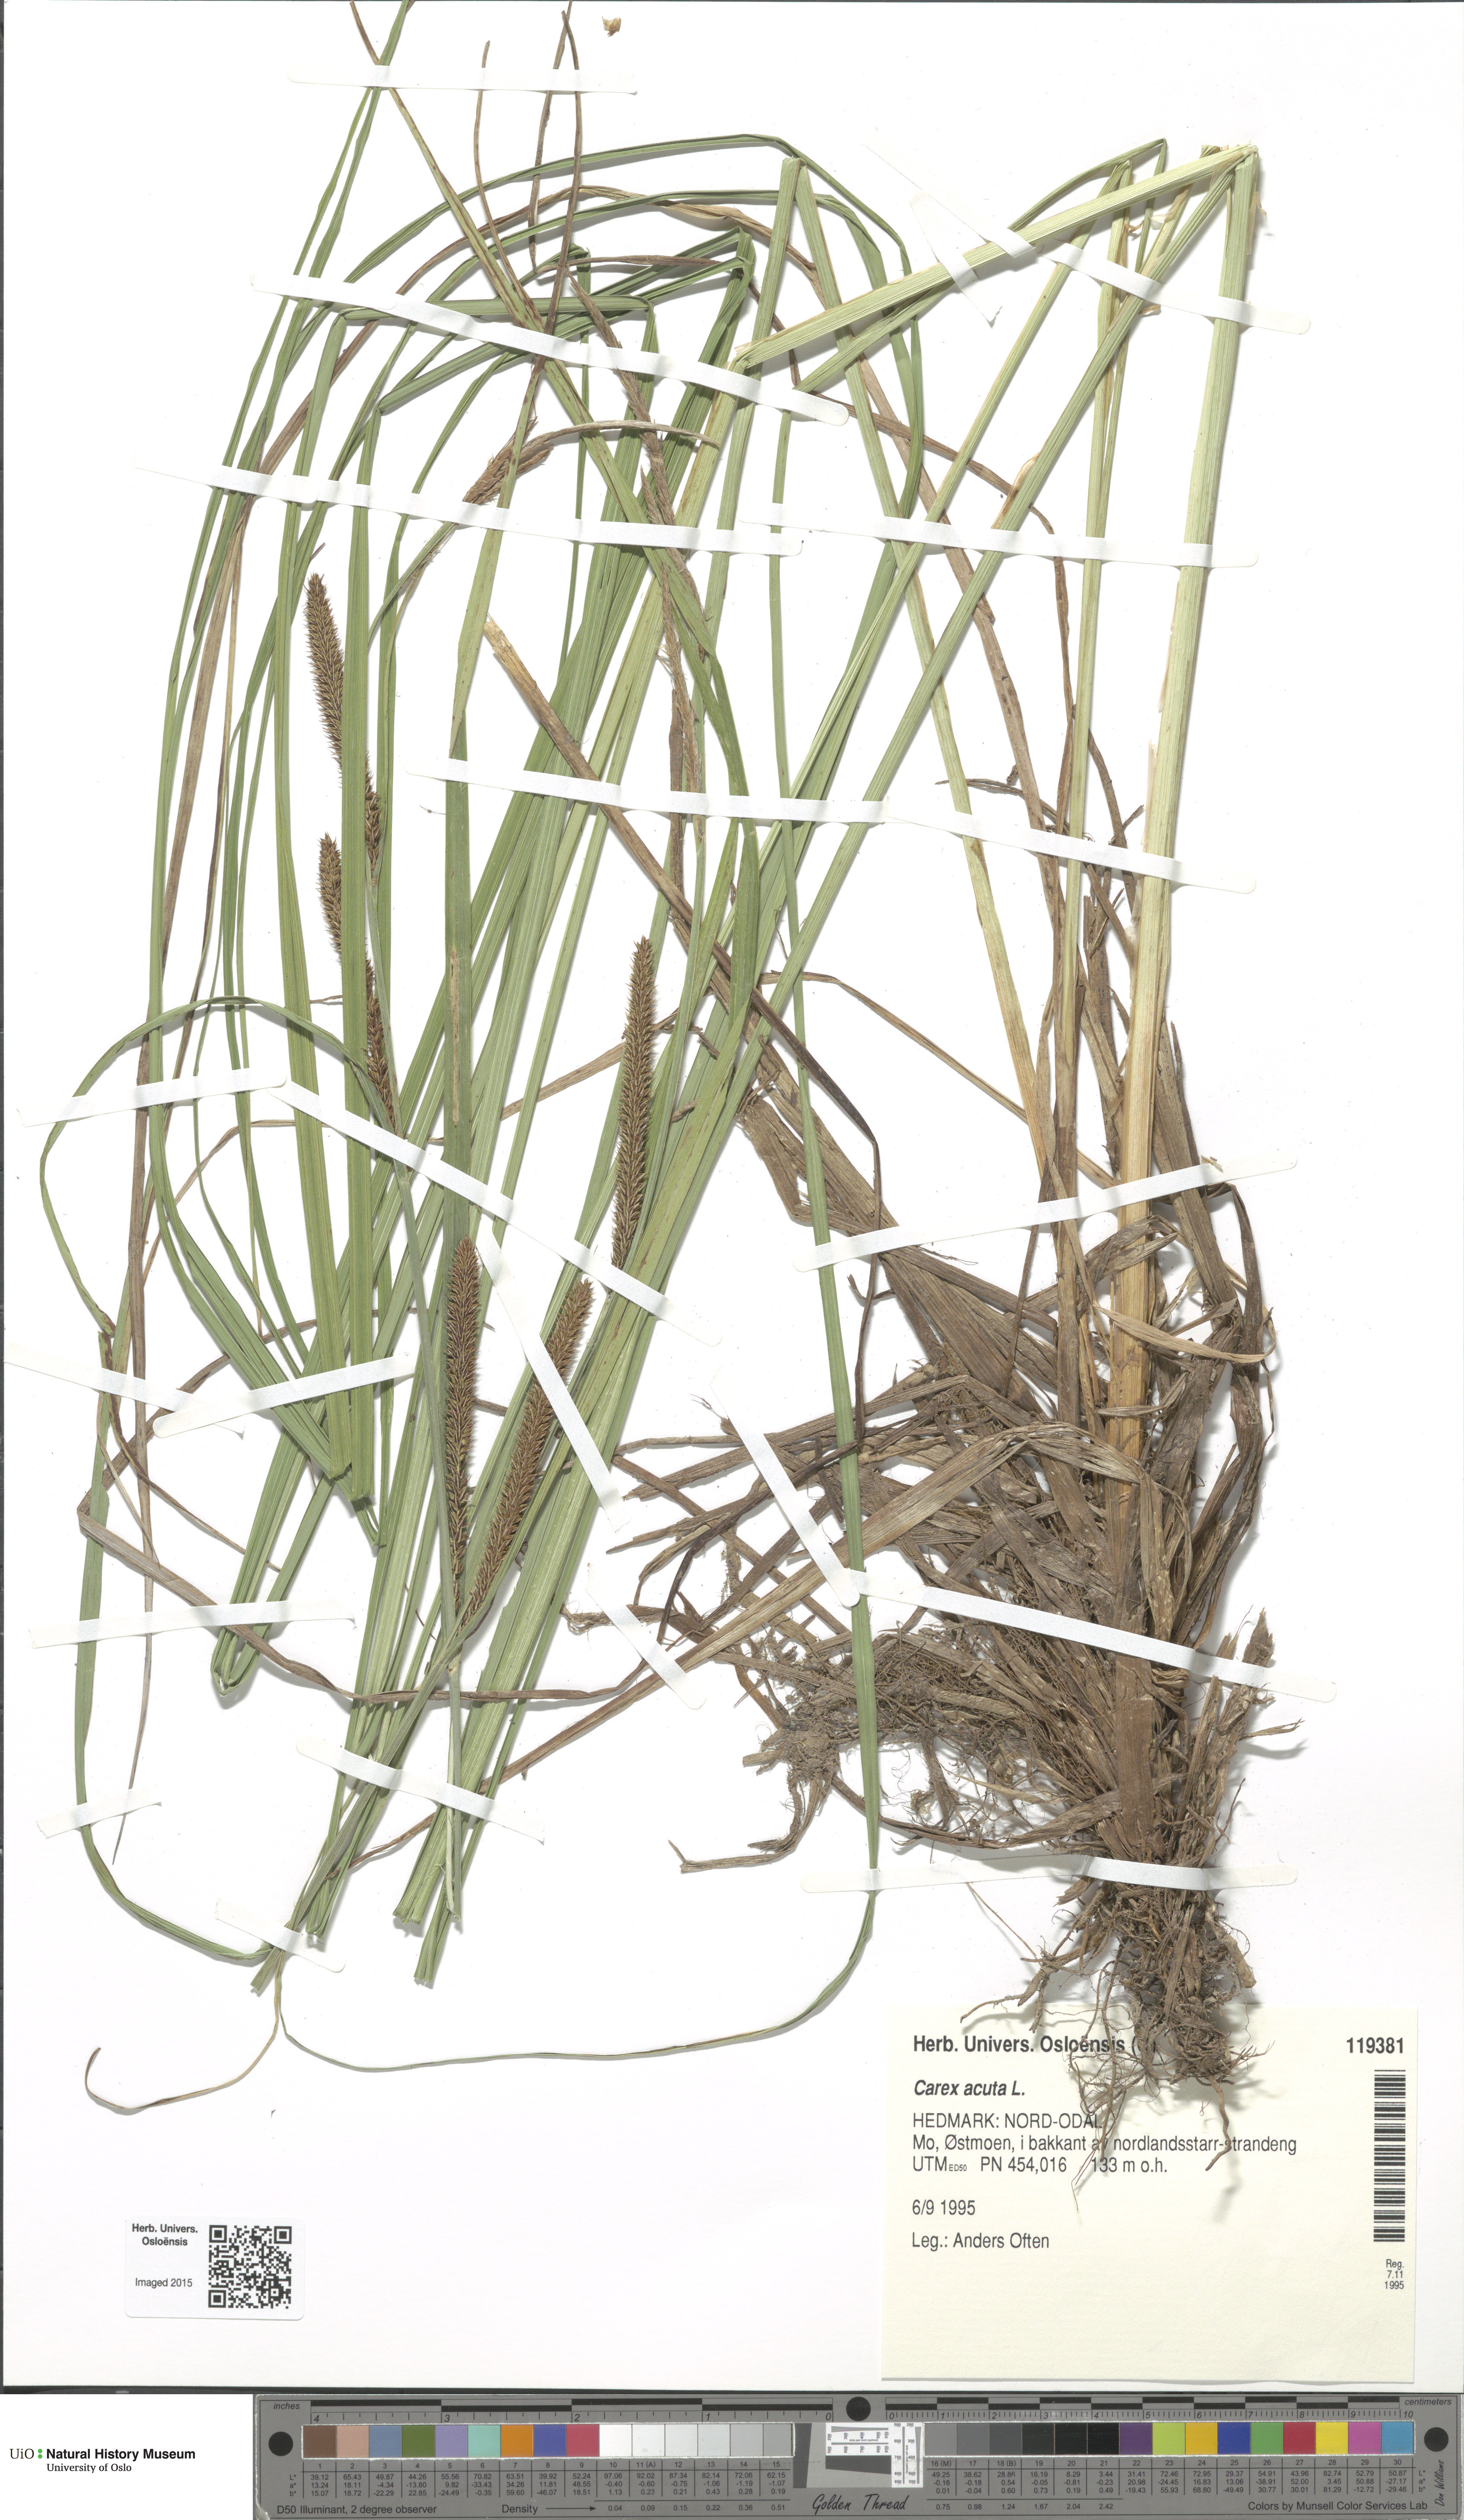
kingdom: Plantae
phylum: Tracheophyta
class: Liliopsida
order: Poales
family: Cyperaceae
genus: Carex
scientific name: Carex acuta
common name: Slender tufted-sedge
